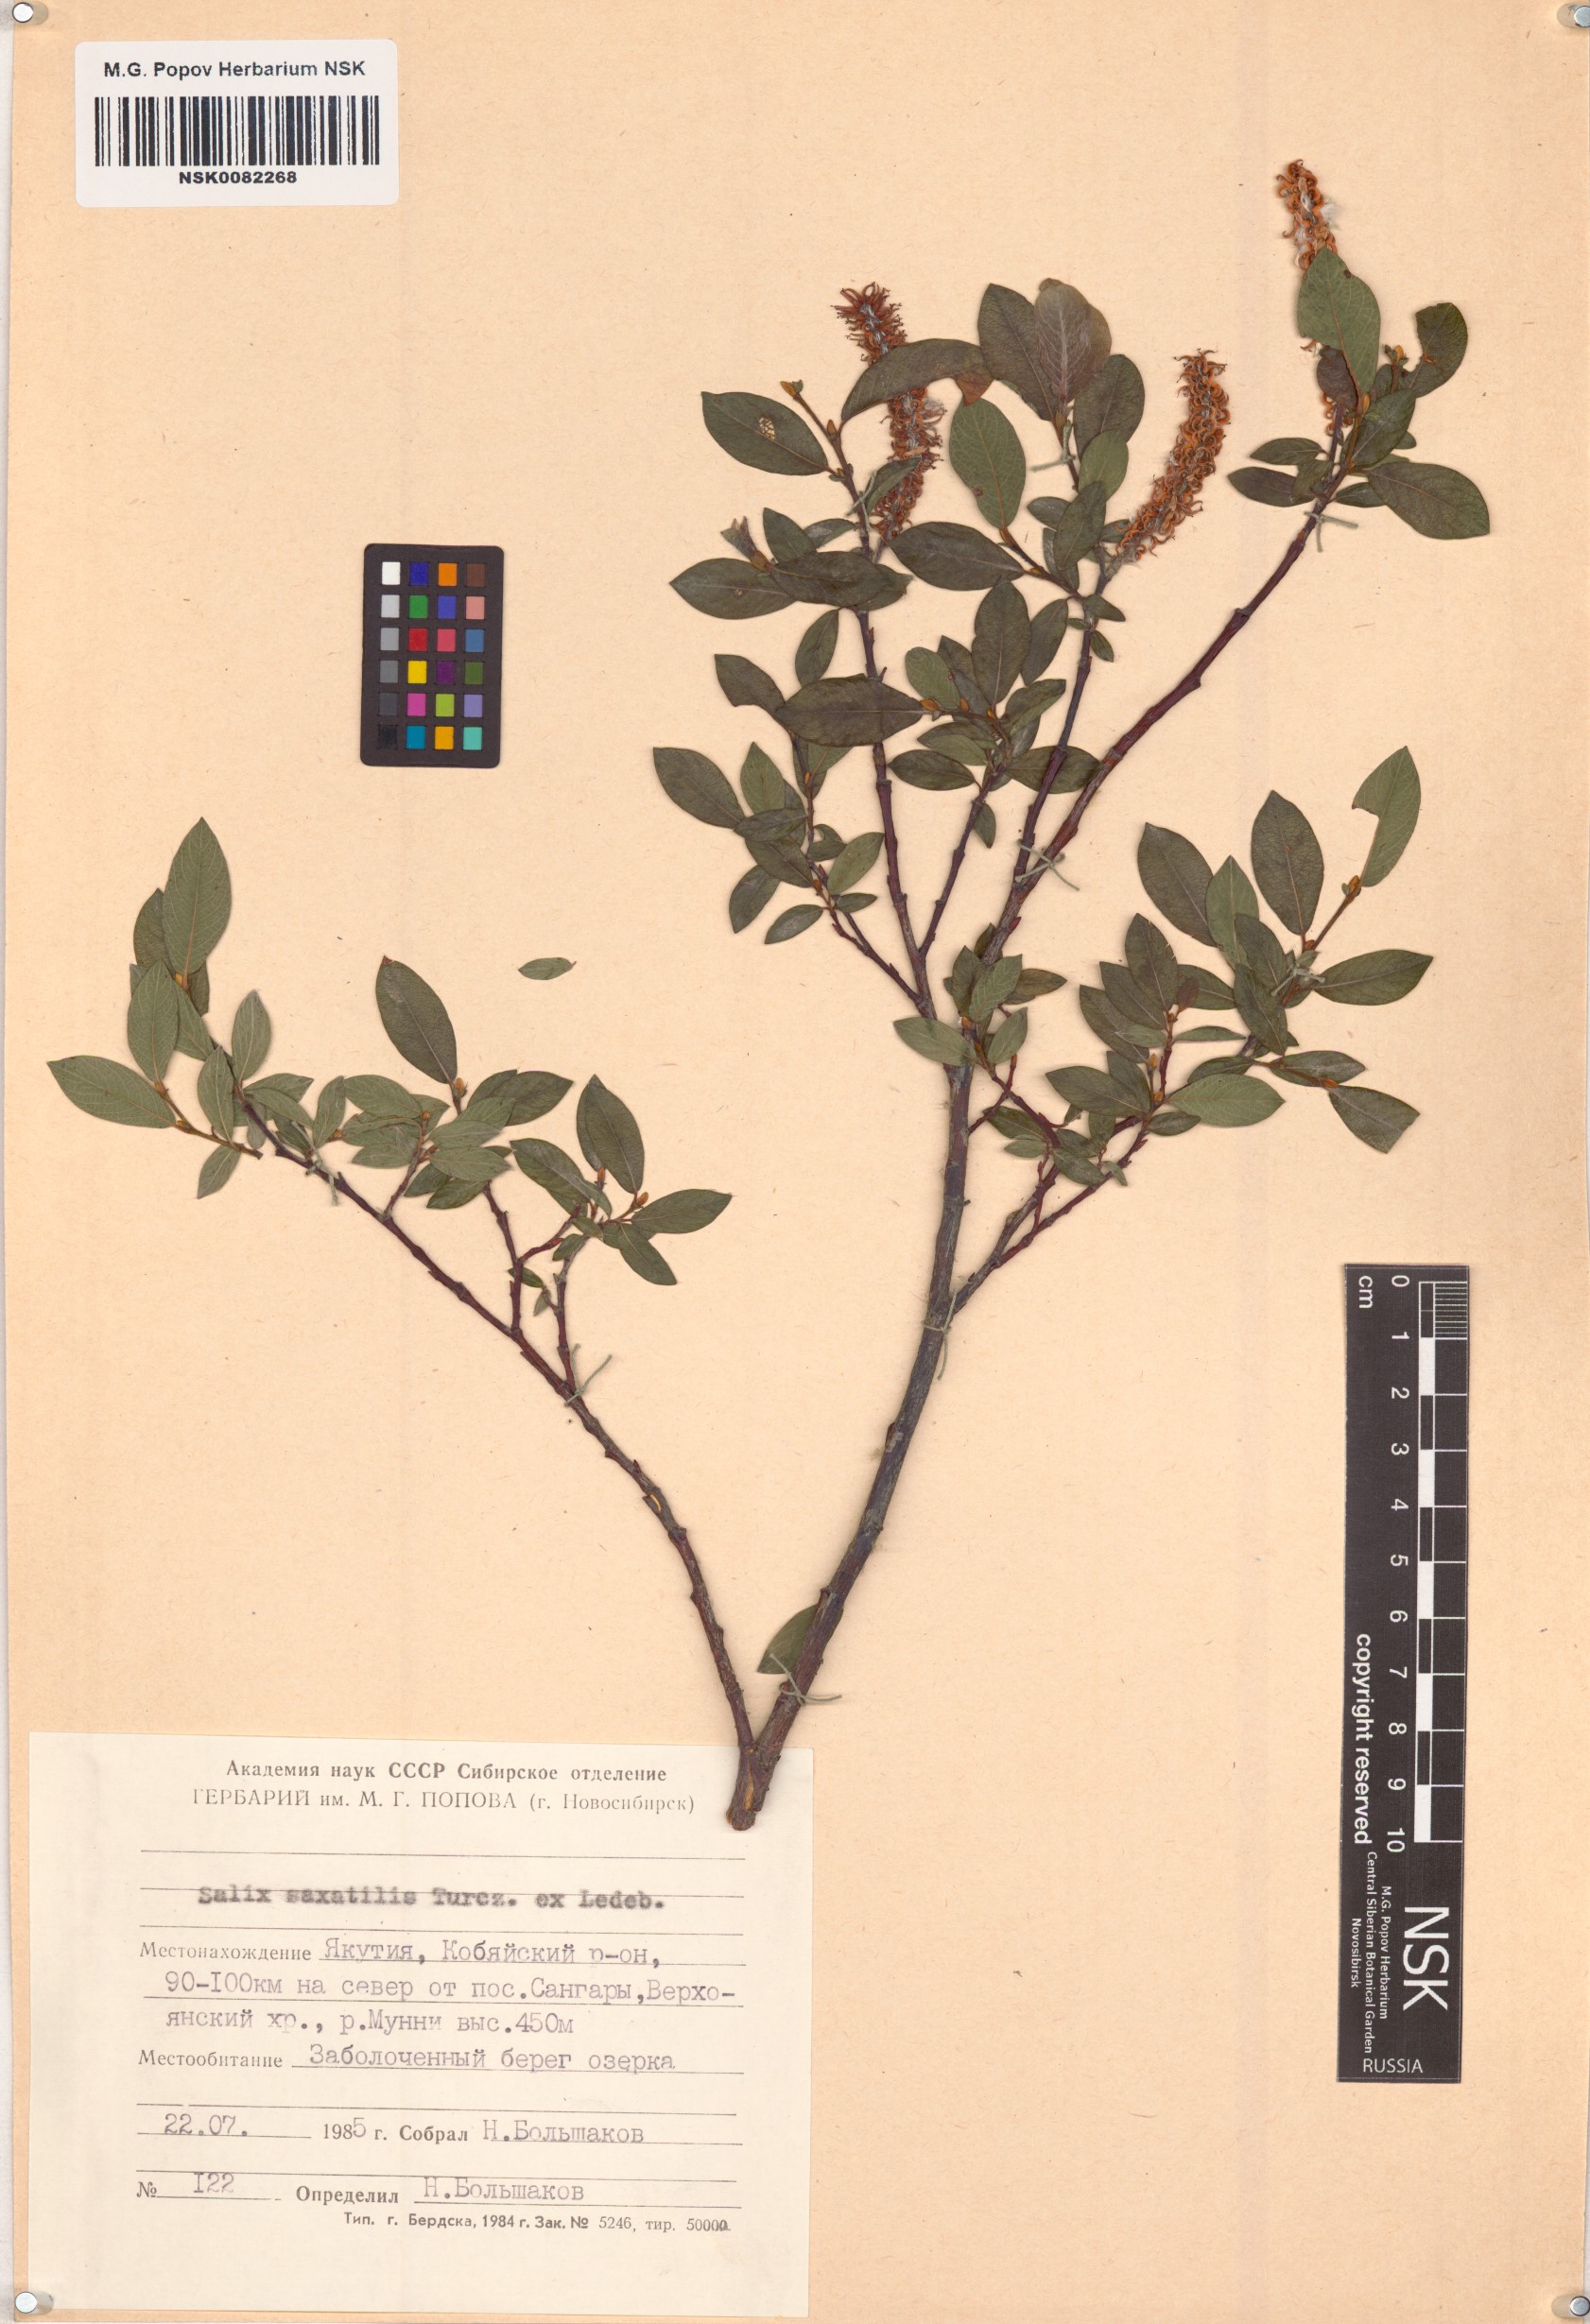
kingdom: Plantae
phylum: Tracheophyta
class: Magnoliopsida
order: Malpighiales
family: Salicaceae
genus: Salix
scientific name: Salix saxatilis
